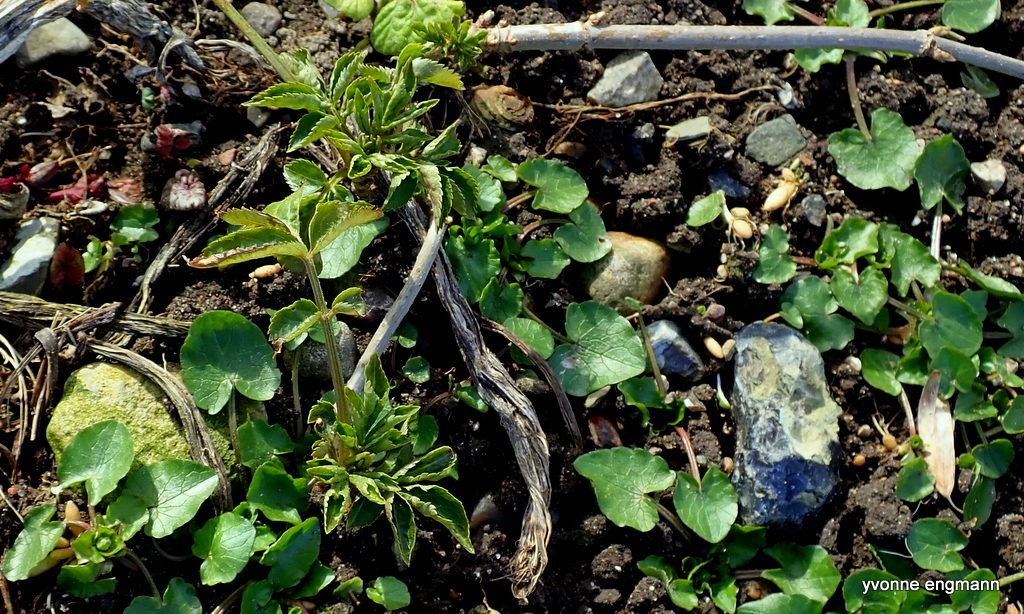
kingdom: Plantae
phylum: Tracheophyta
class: Magnoliopsida
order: Dipsacales
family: Viburnaceae
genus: Sambucus
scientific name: Sambucus nigra
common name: Almindelig hyld
